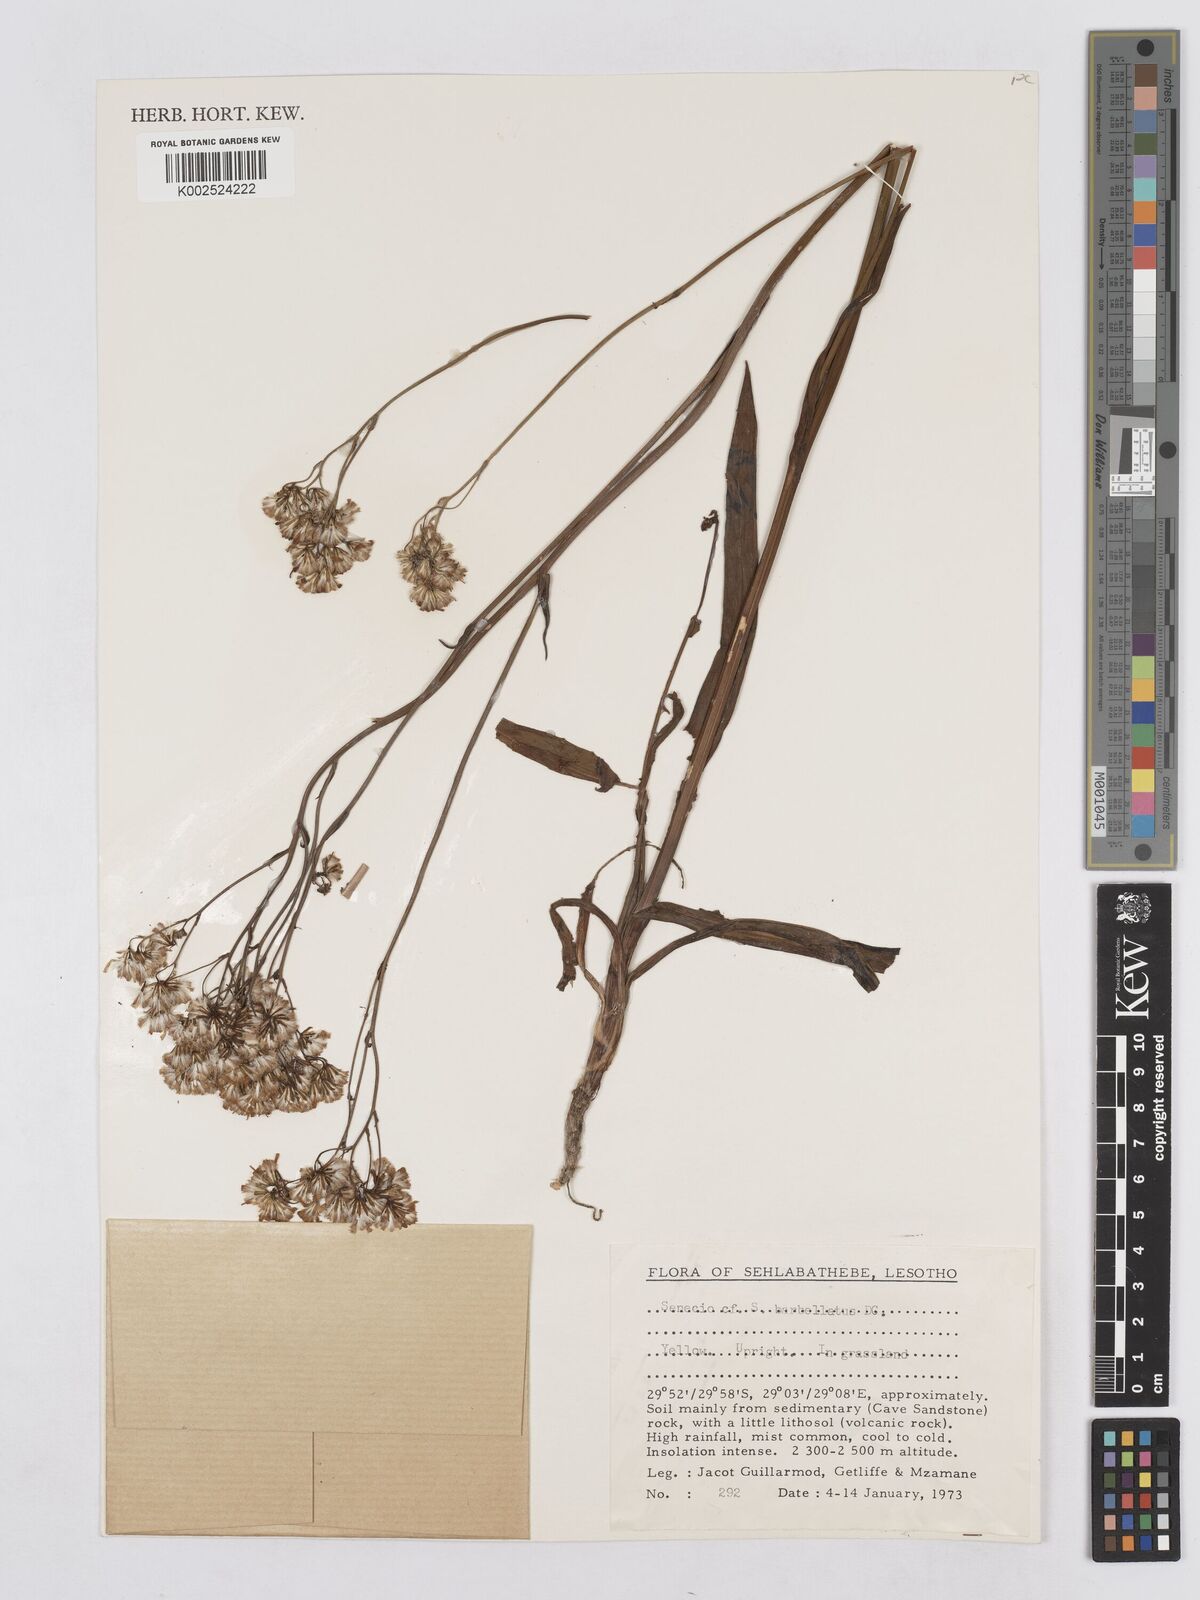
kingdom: Plantae
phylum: Tracheophyta
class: Magnoliopsida
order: Asterales
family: Asteraceae
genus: Senecio
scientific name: Senecio retrorsus
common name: Ragwort
